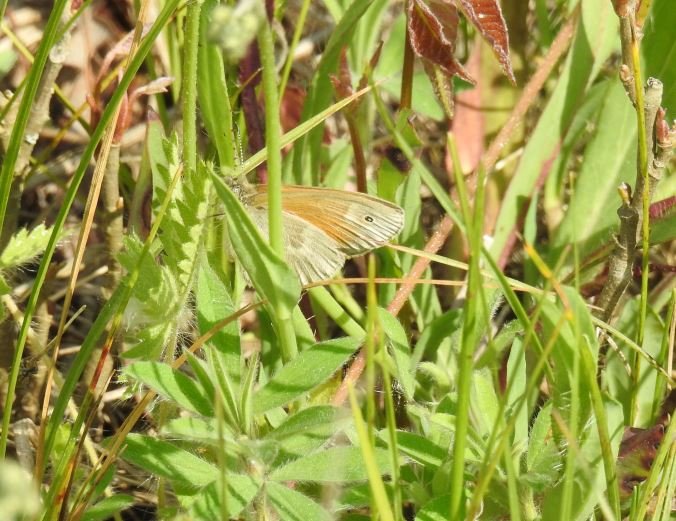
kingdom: Animalia
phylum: Arthropoda
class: Insecta
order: Lepidoptera
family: Nymphalidae
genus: Coenonympha
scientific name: Coenonympha tullia
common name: Large Heath
